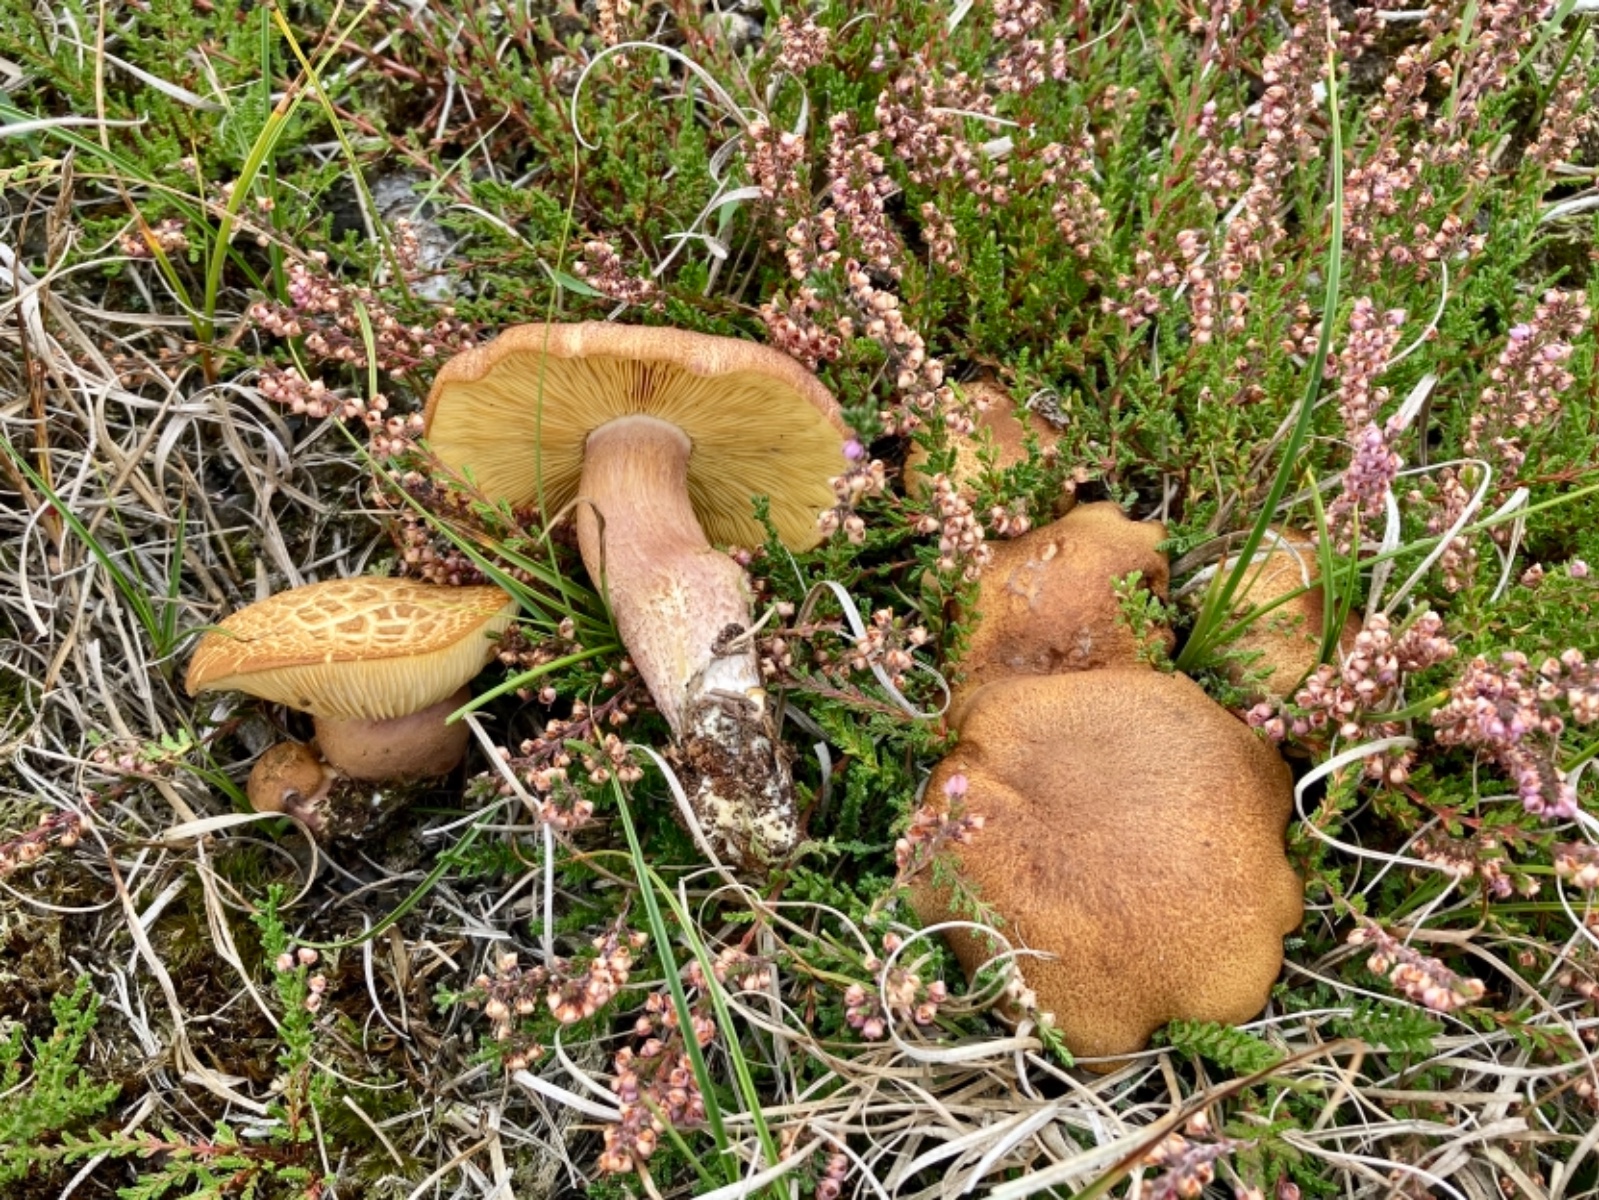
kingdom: Fungi
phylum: Basidiomycota
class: Agaricomycetes
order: Agaricales
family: Tricholomataceae
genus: Tricholomopsis
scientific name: Tricholomopsis rutilans
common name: purpur-væbnerhat
